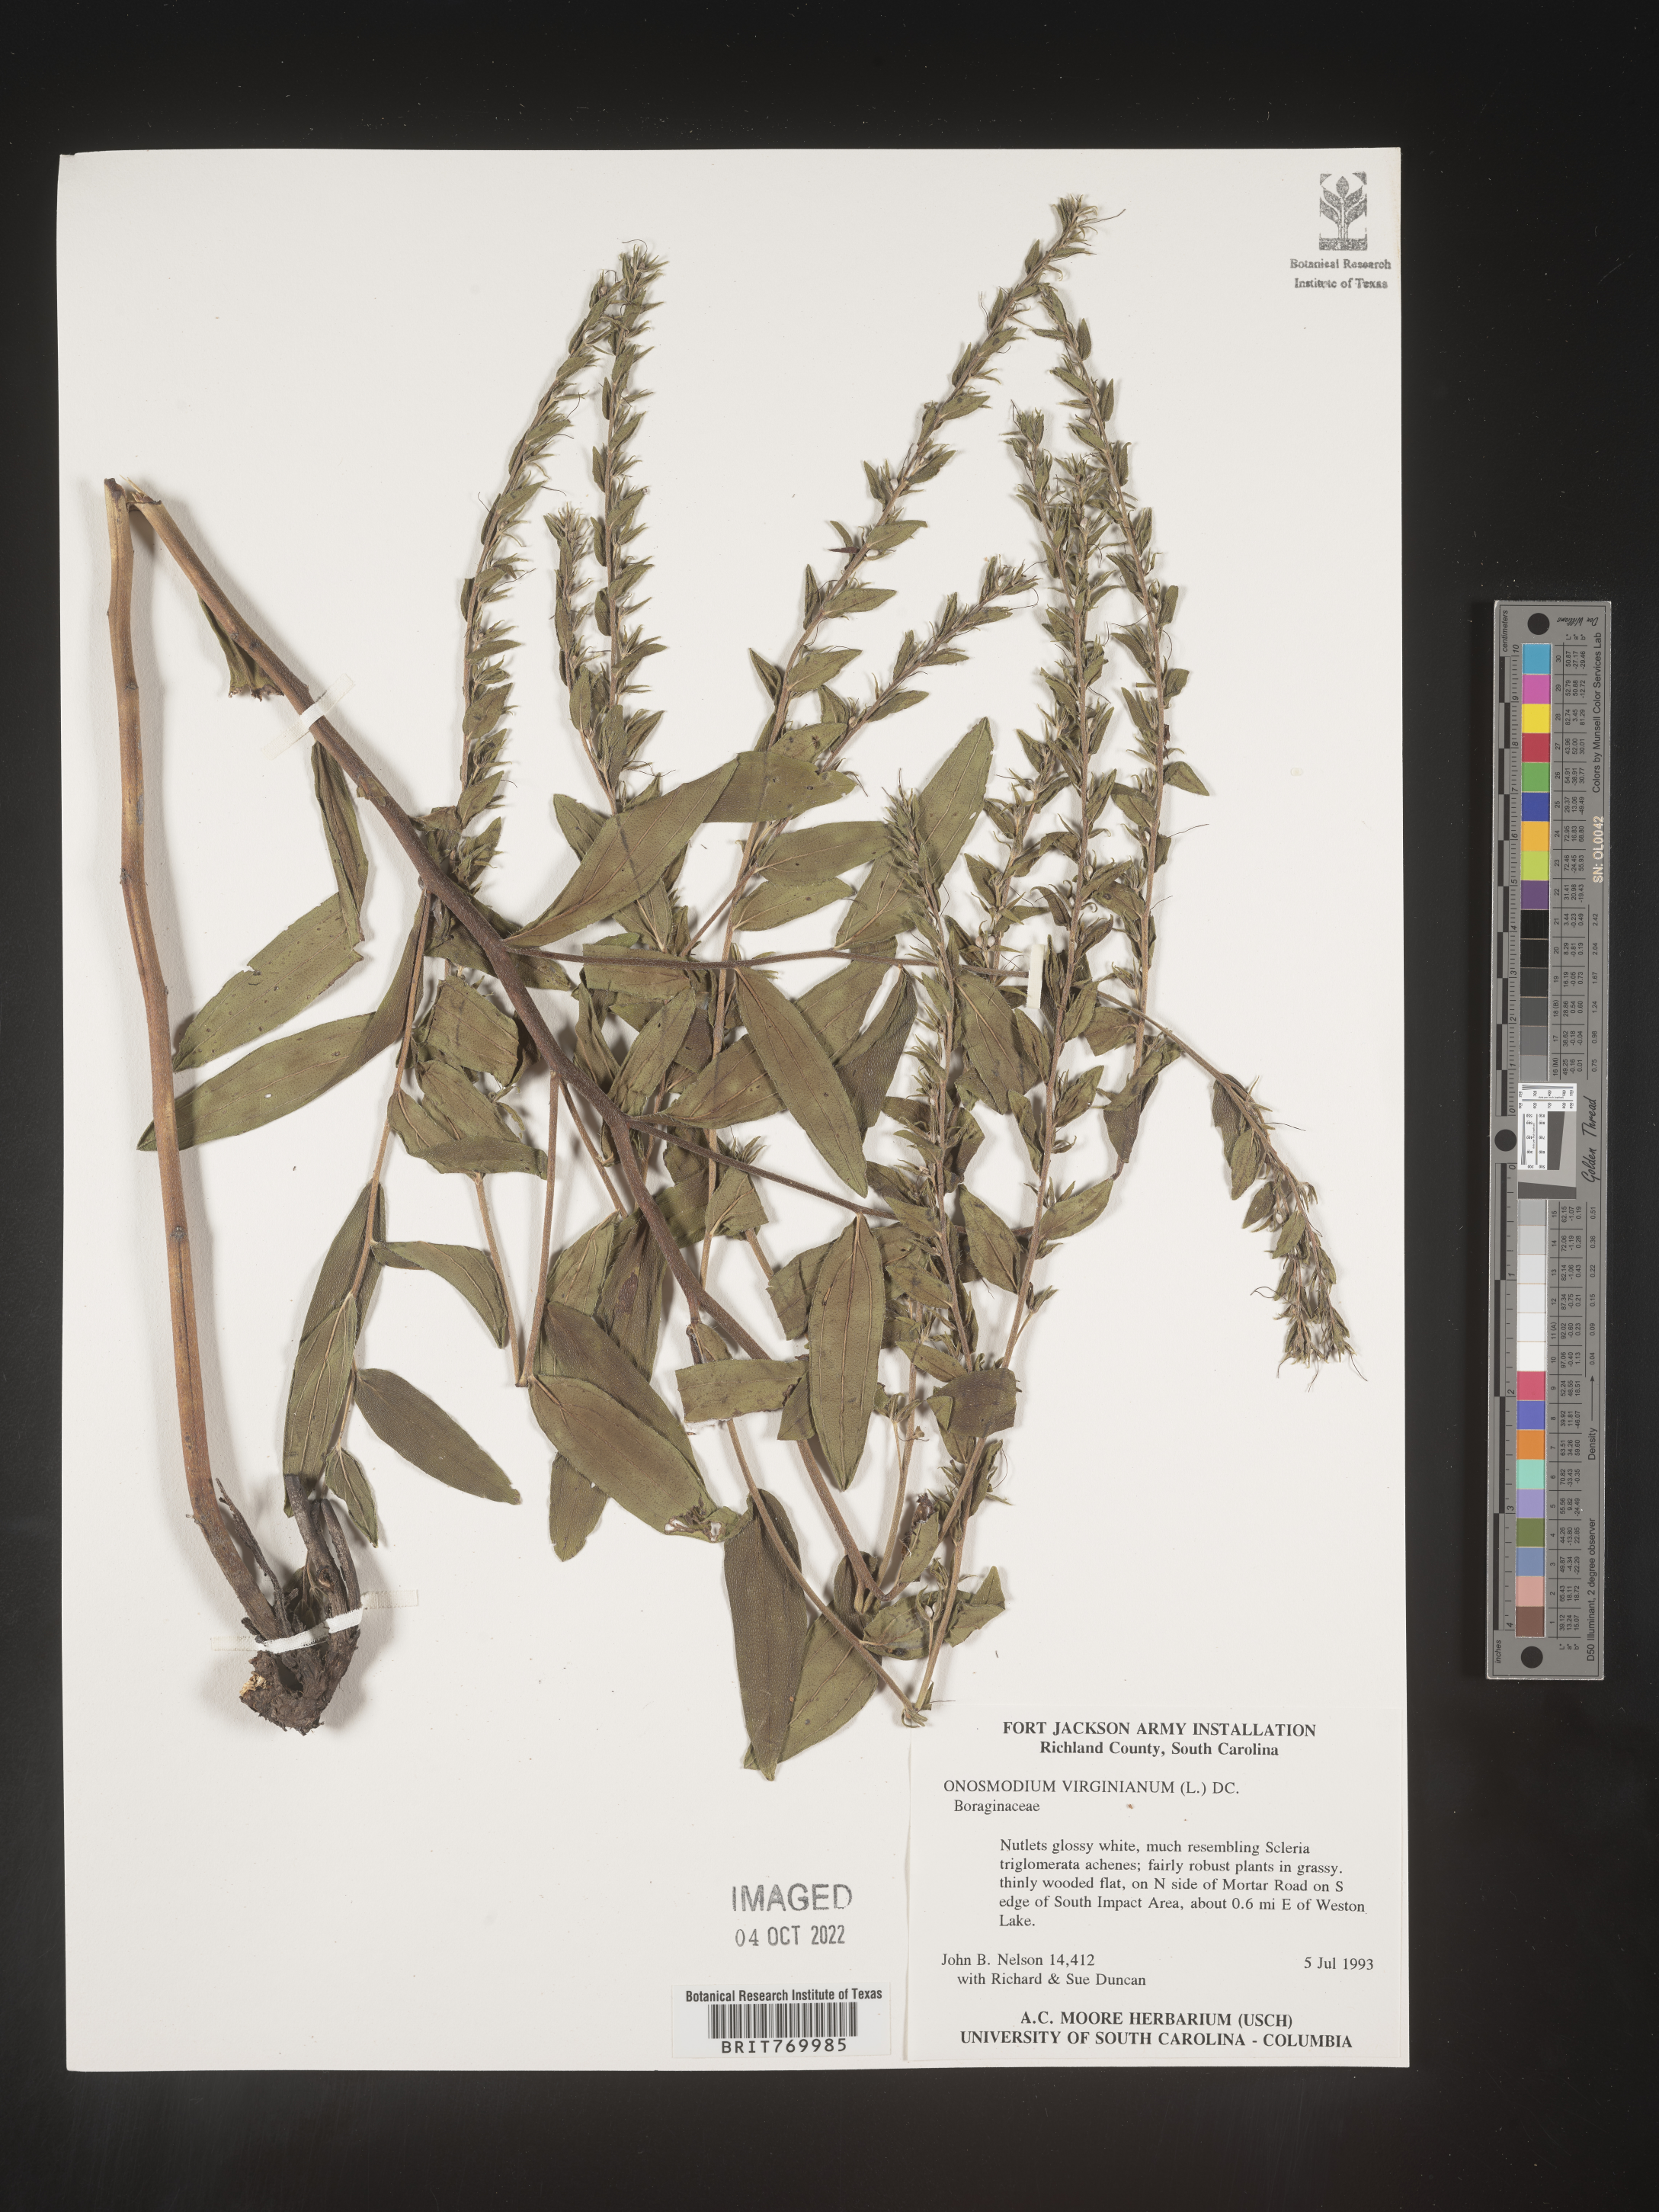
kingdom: Plantae
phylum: Tracheophyta
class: Magnoliopsida
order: Boraginales
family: Boraginaceae
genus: Lithospermum
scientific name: Lithospermum virginianum
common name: Eastern false gromwell
